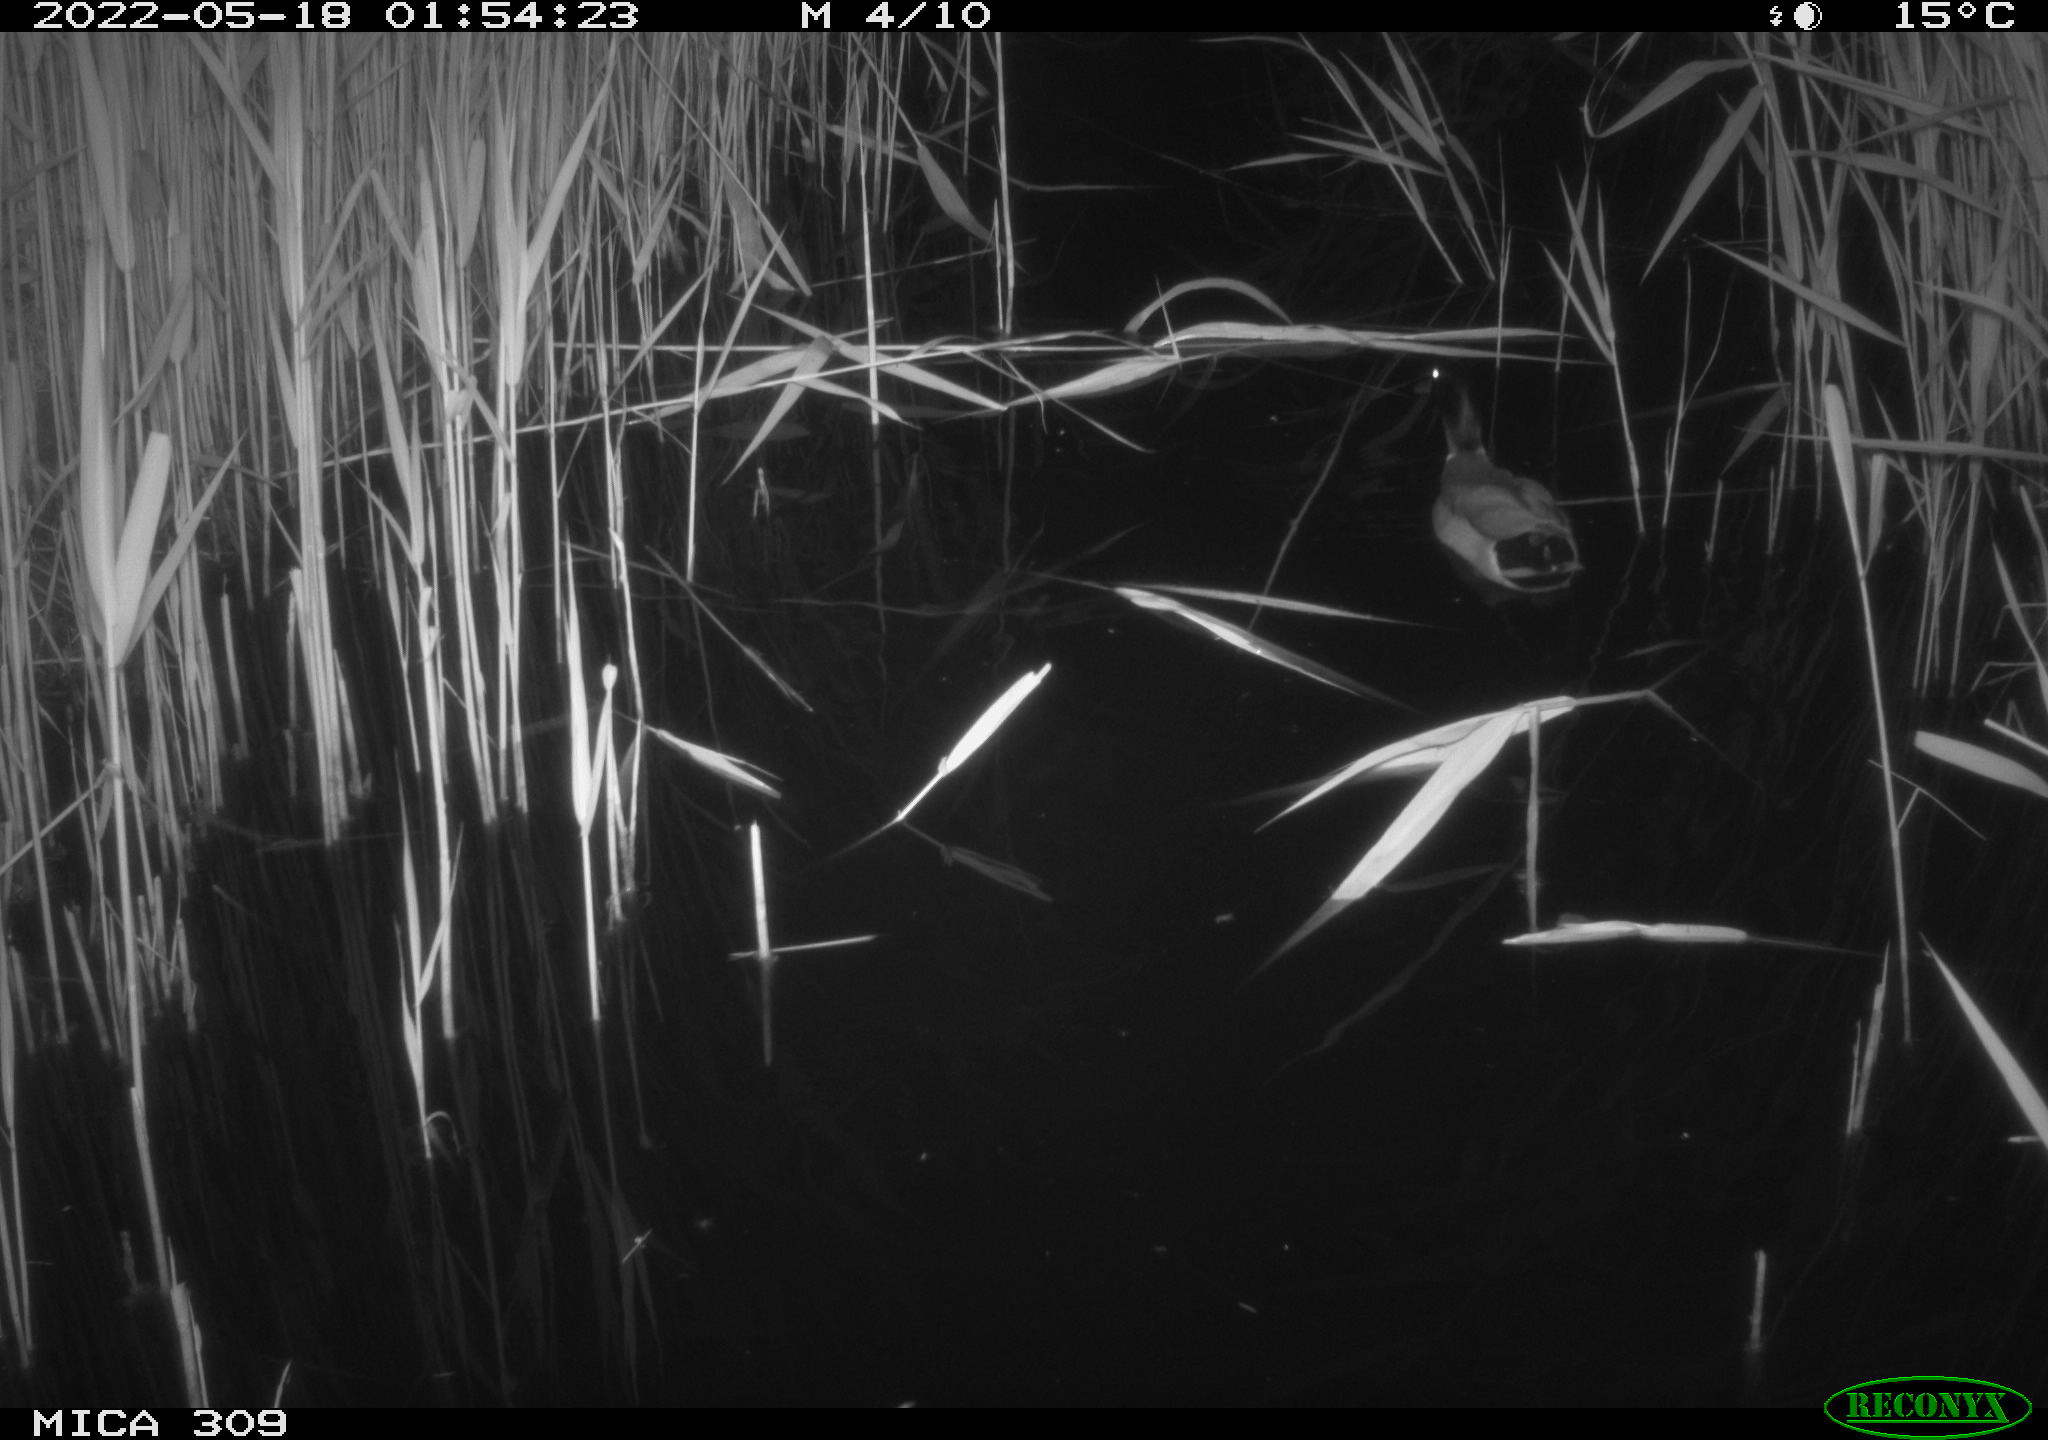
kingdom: Animalia
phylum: Chordata
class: Aves
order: Anseriformes
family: Anatidae
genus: Anas
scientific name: Anas platyrhynchos
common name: Mallard
